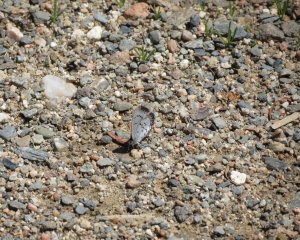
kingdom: Animalia
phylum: Arthropoda
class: Insecta
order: Lepidoptera
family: Lycaenidae
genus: Celastrina
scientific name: Celastrina serotina
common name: Cherry Gall Azure
